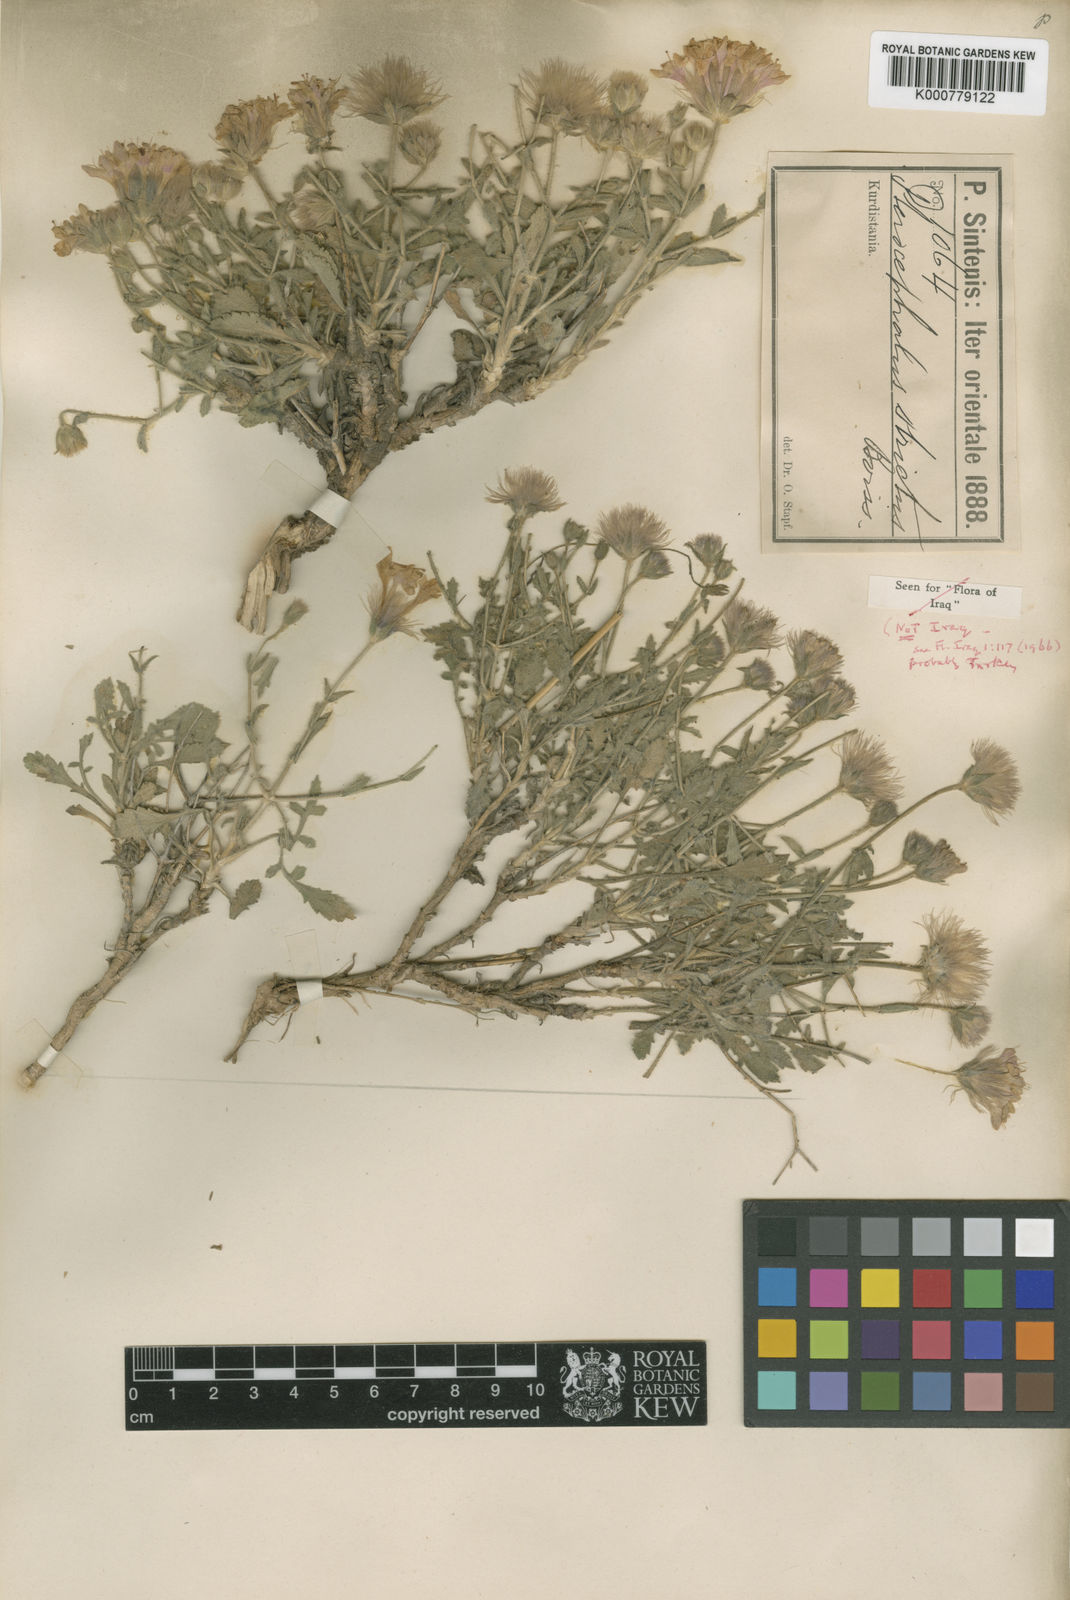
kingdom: Plantae
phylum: Tracheophyta
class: Magnoliopsida
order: Dipsacales
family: Caprifoliaceae
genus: Pterocephalus
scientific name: Pterocephalus strictus
